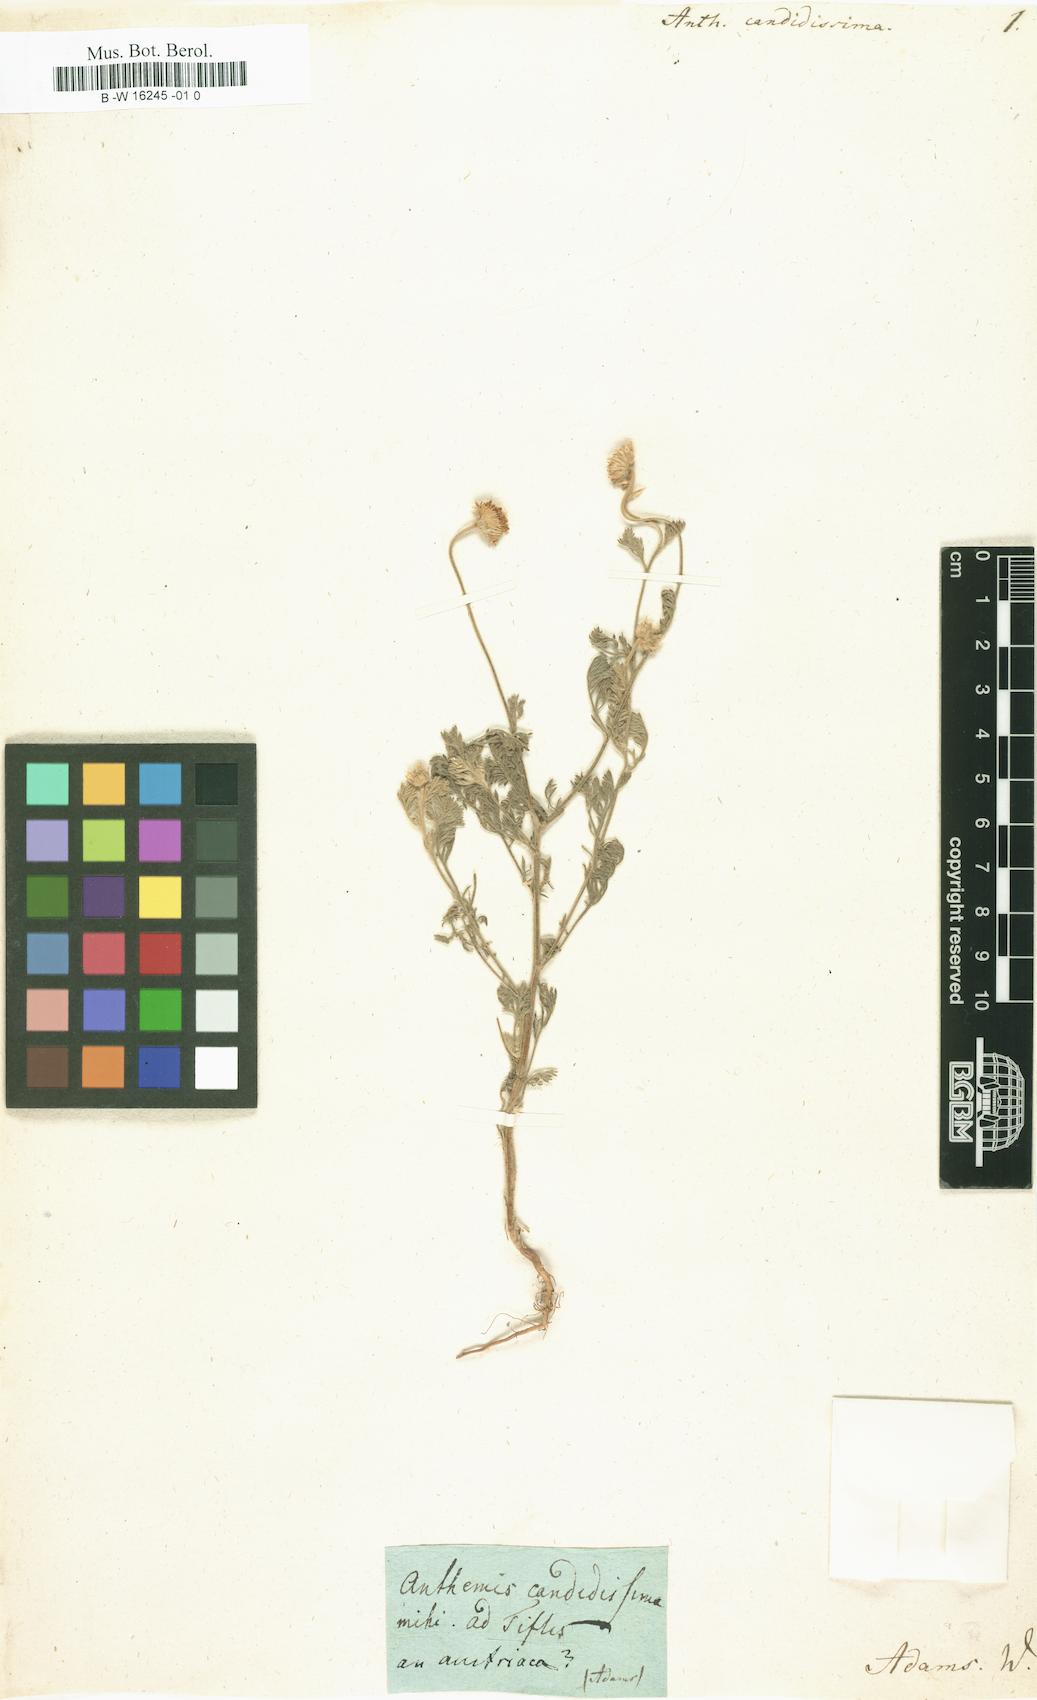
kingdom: Plantae
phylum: Tracheophyta
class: Magnoliopsida
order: Asterales
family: Asteraceae
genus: Anthemis
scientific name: Anthemis candidissima
